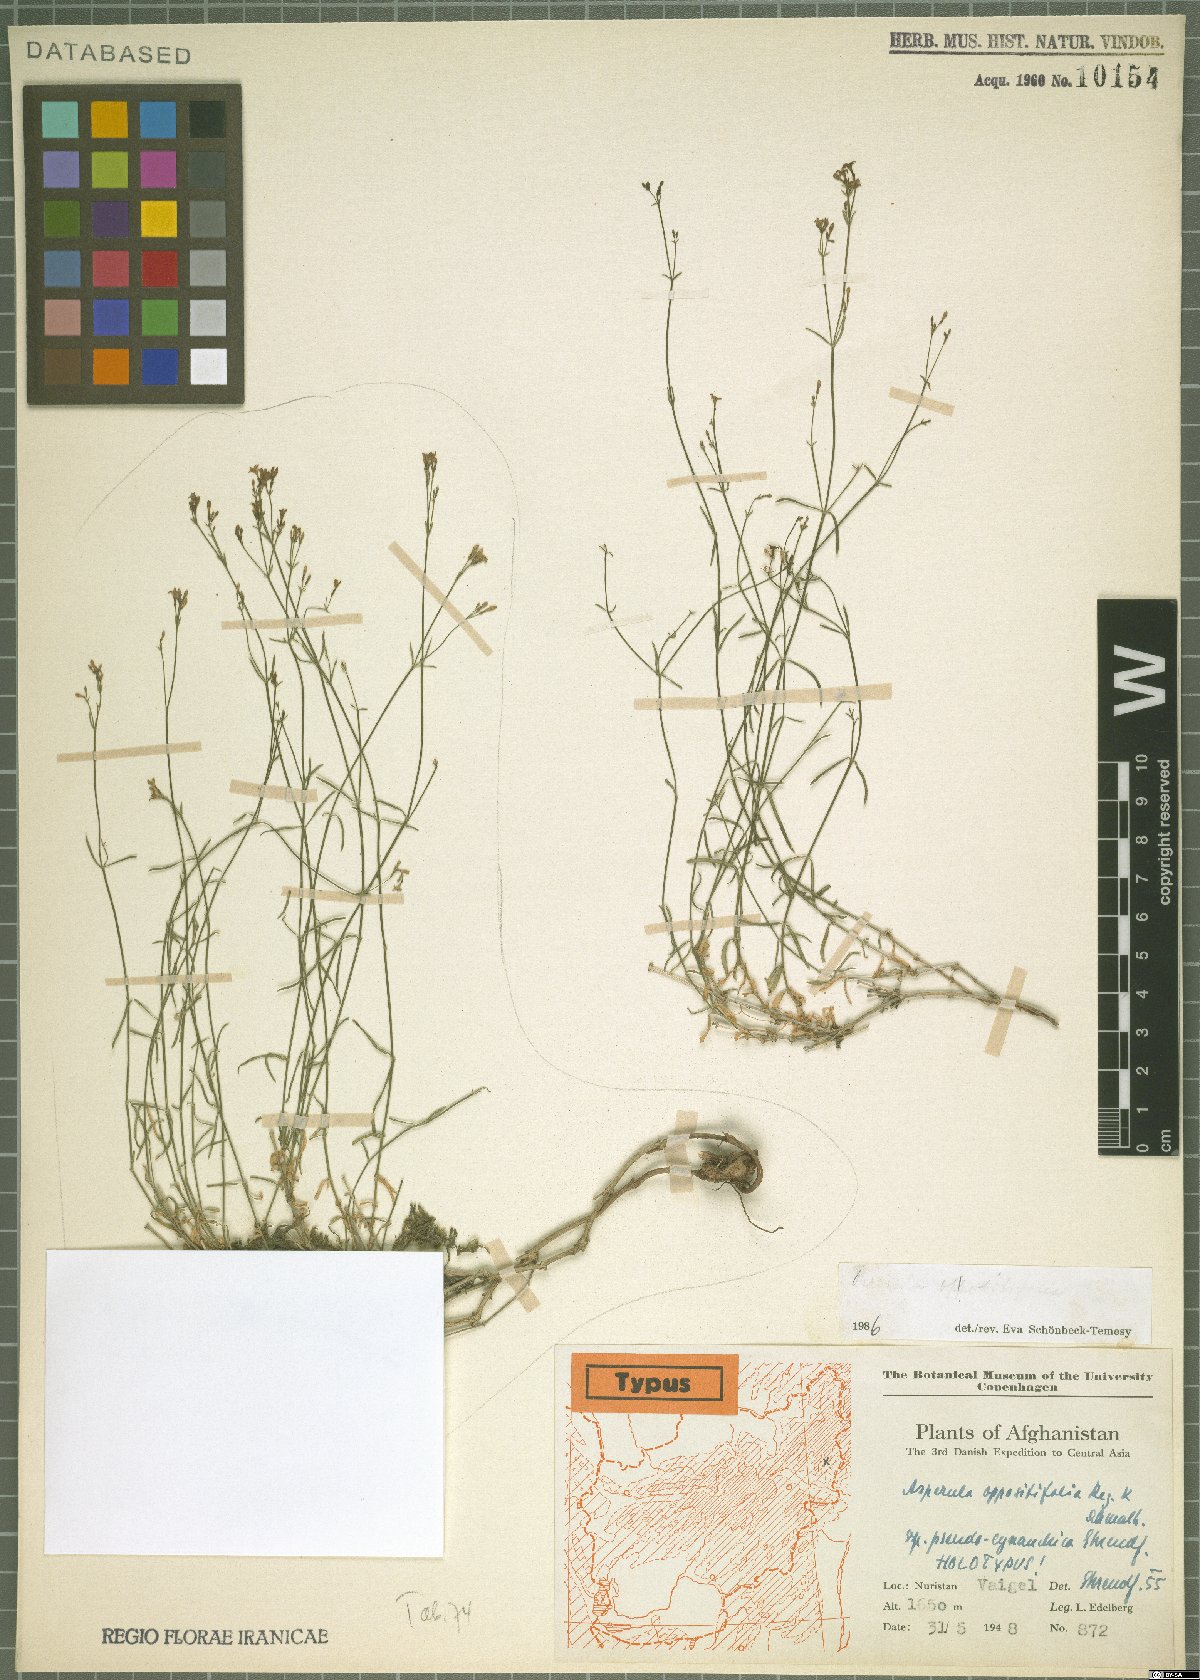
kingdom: Plantae
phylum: Tracheophyta
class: Magnoliopsida
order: Gentianales
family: Rubiaceae
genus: Asperula
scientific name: Asperula oppositifolia
